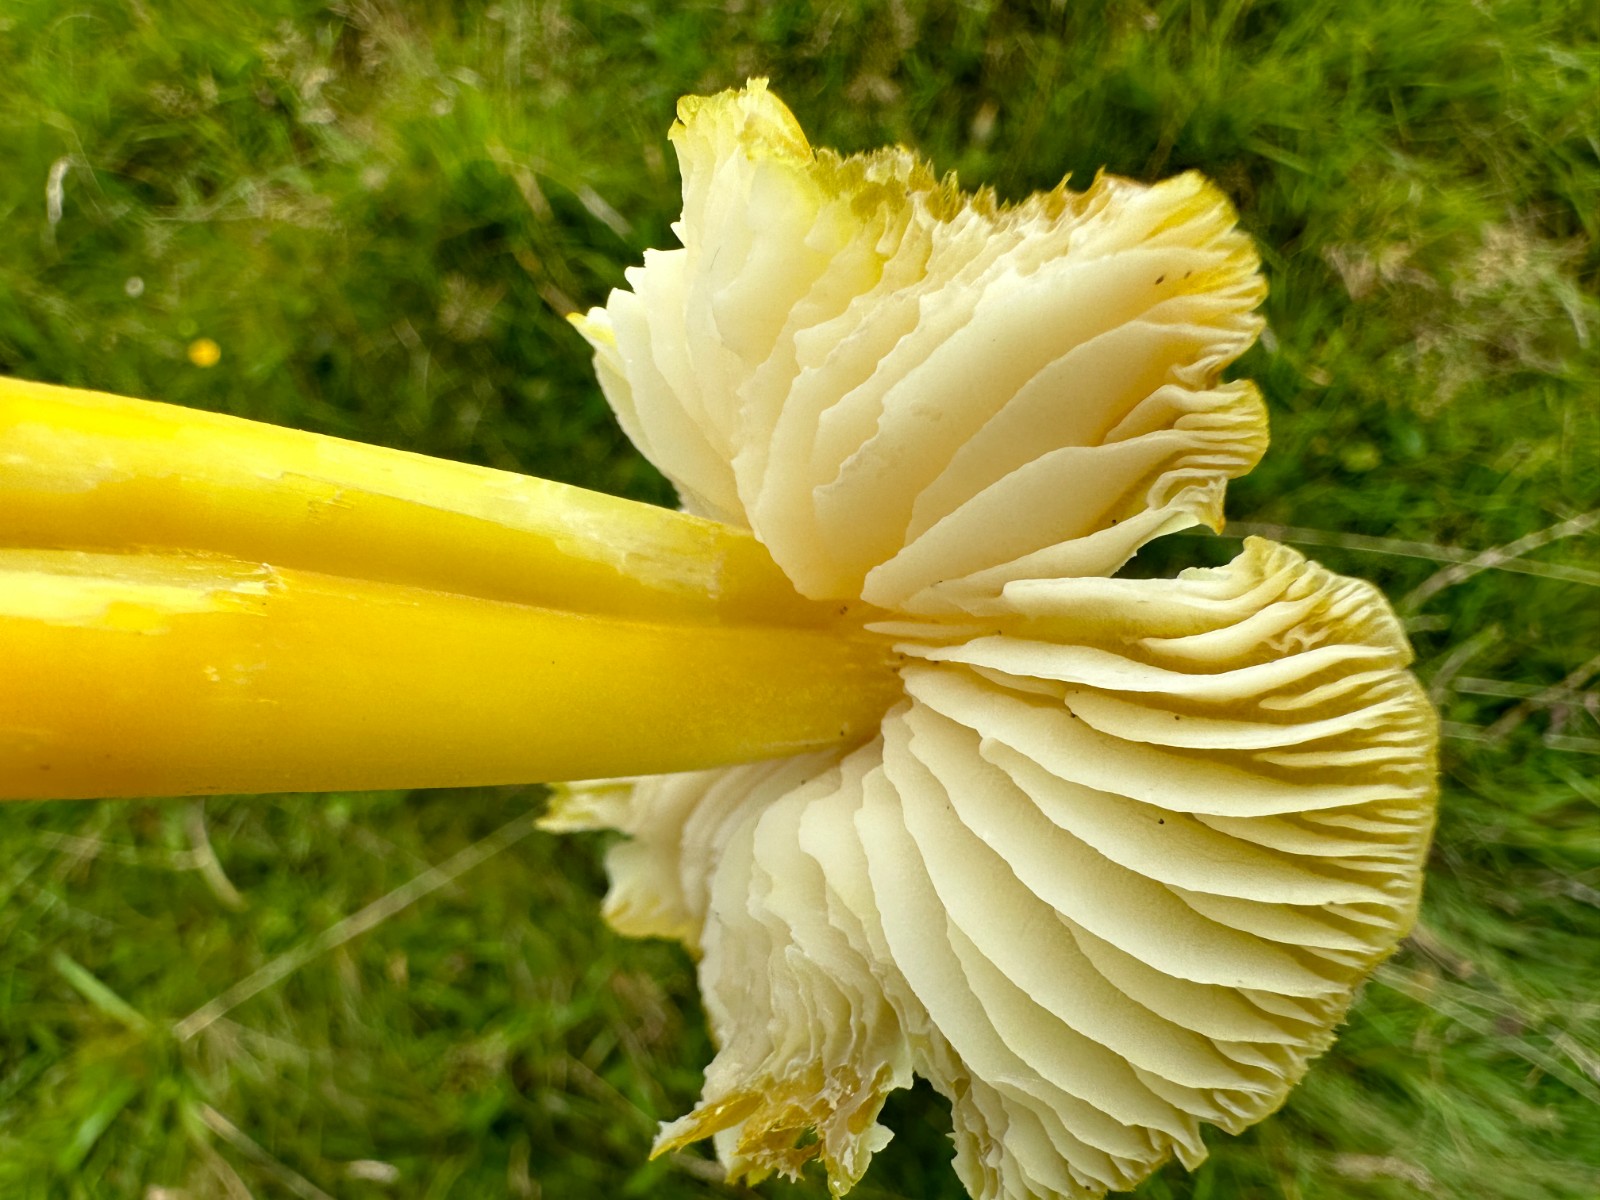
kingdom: Fungi
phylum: Basidiomycota
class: Agaricomycetes
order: Agaricales
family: Hygrophoraceae
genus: Hygrocybe
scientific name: Hygrocybe citrinovirens
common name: grøngul vokshat
